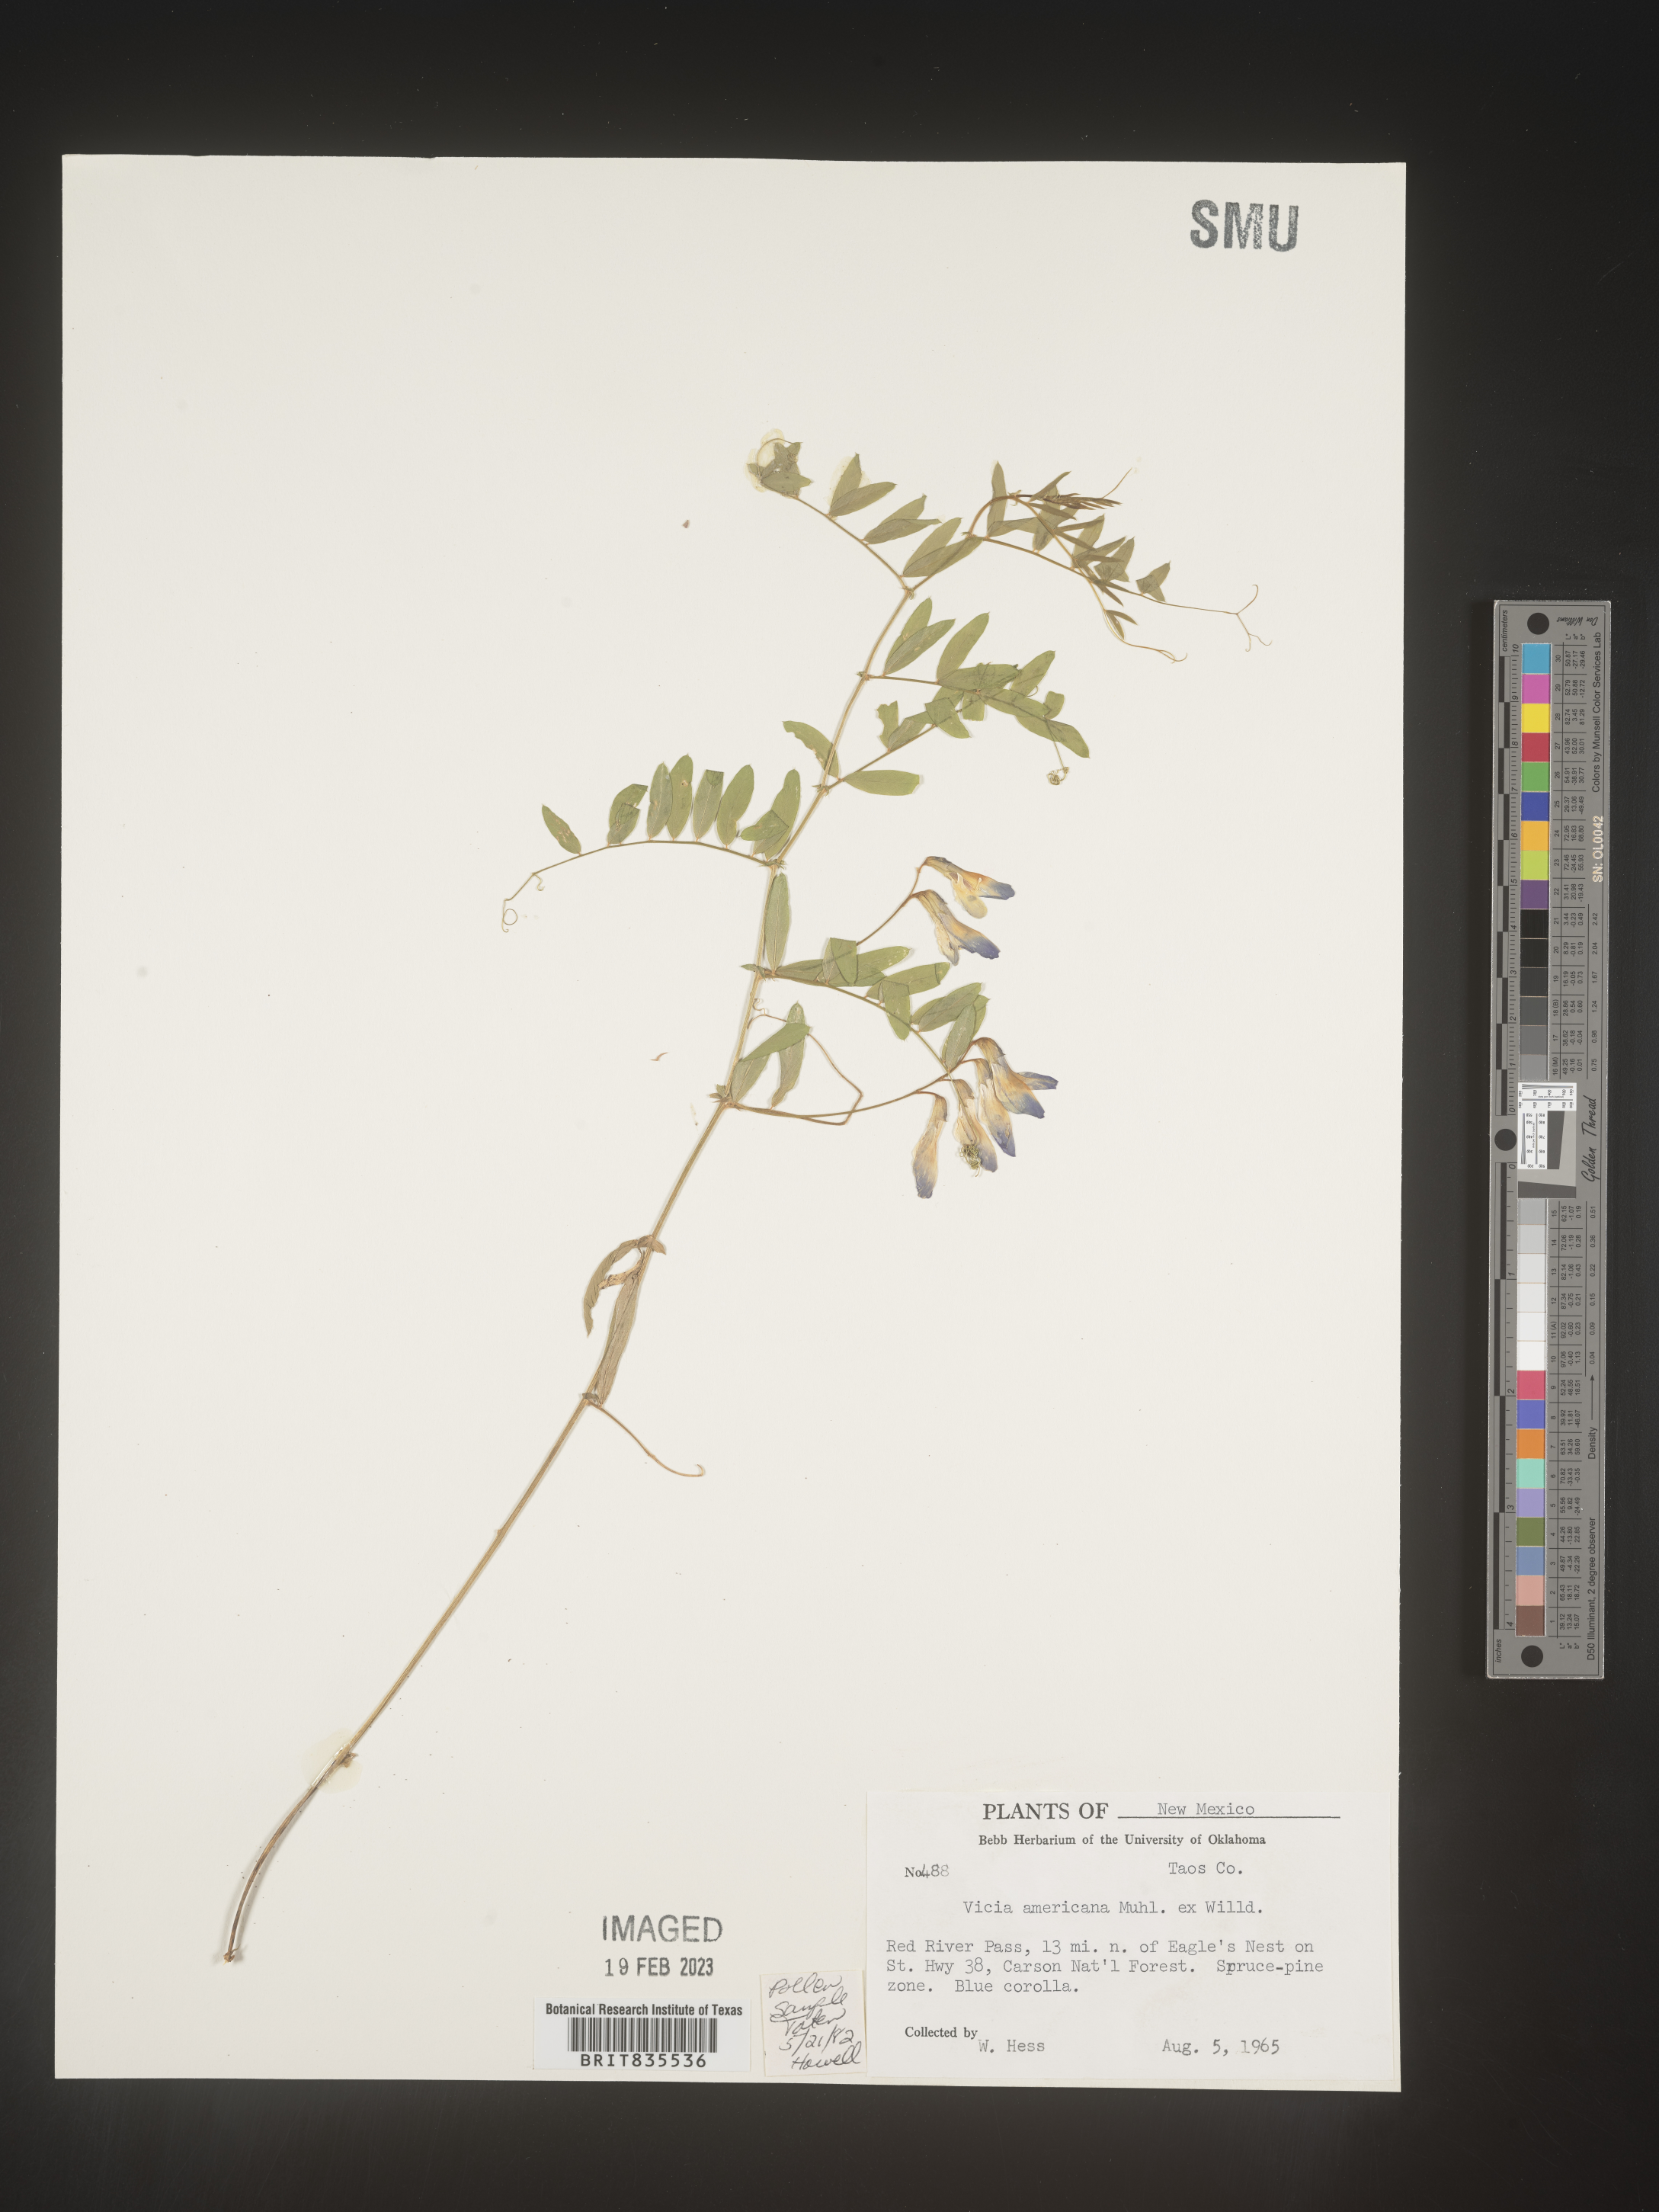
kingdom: Plantae
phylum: Tracheophyta
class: Magnoliopsida
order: Fabales
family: Fabaceae
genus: Vicia
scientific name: Vicia americana
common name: American vetch
